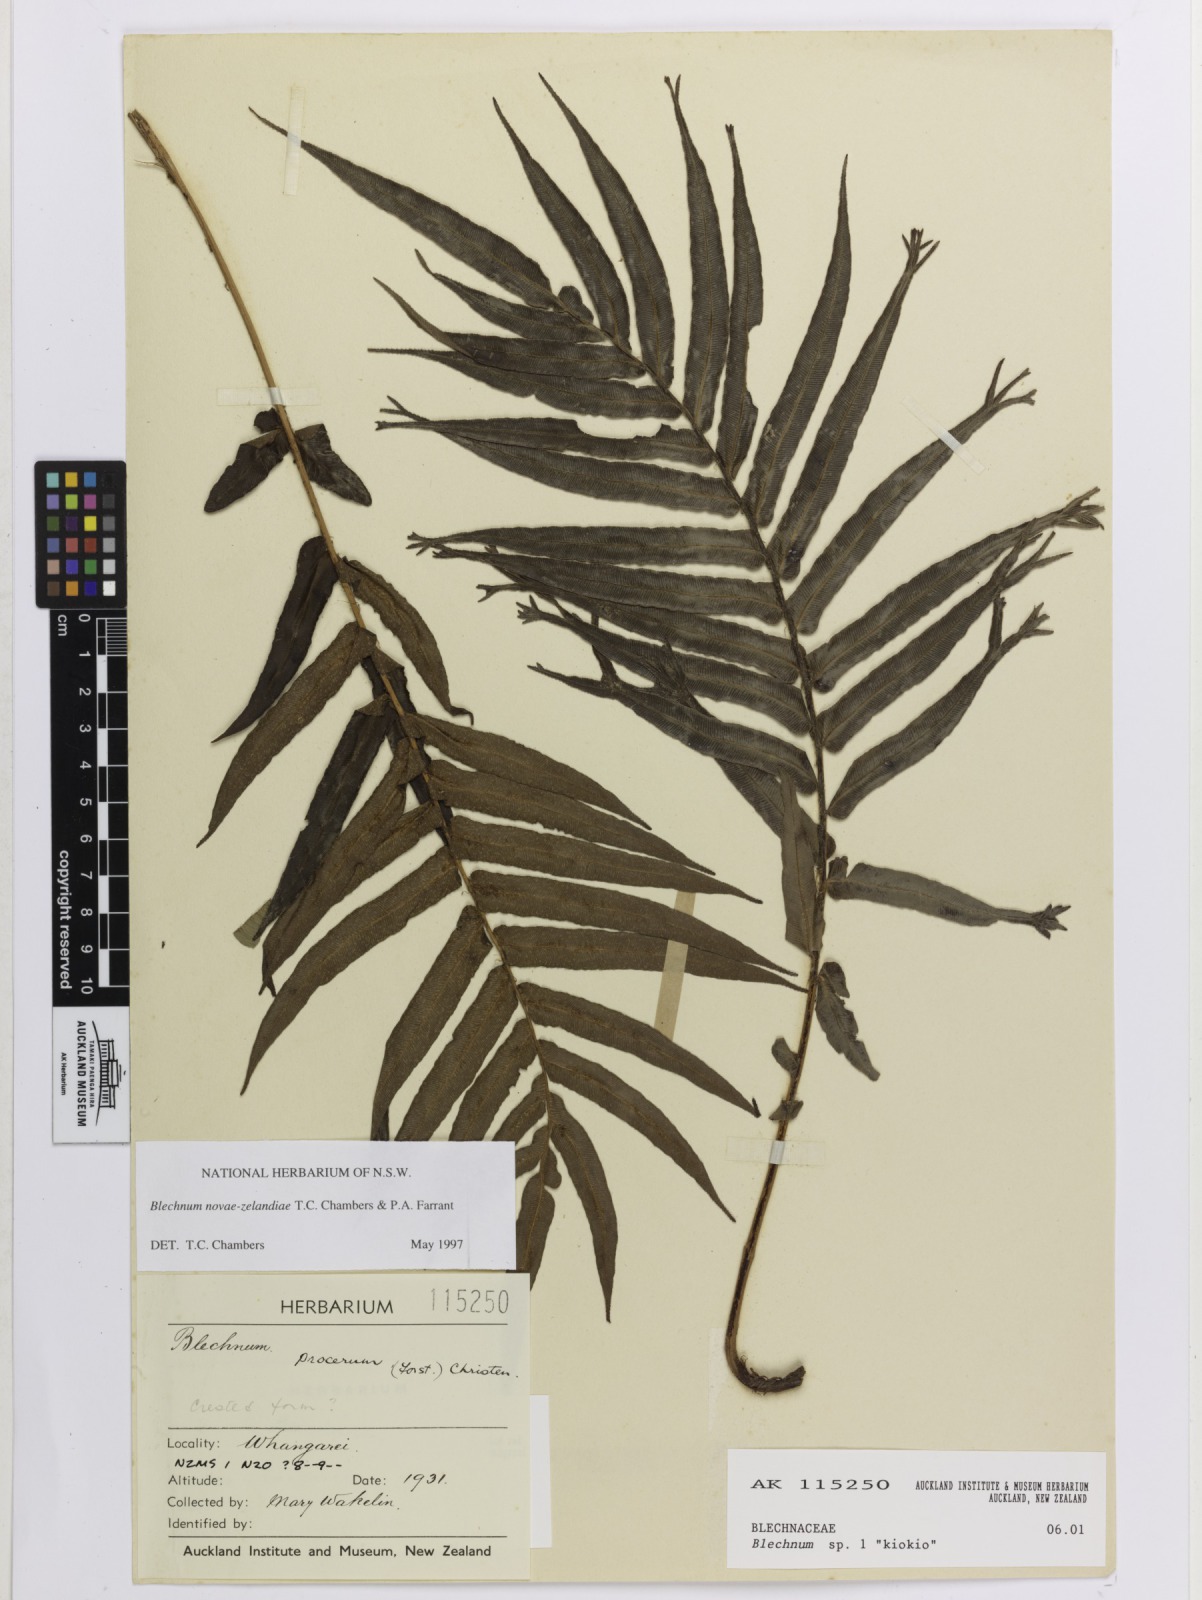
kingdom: Plantae
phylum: Tracheophyta
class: Polypodiopsida
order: Polypodiales
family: Blechnaceae
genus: Parablechnum
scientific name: Parablechnum novae-zelandiae
